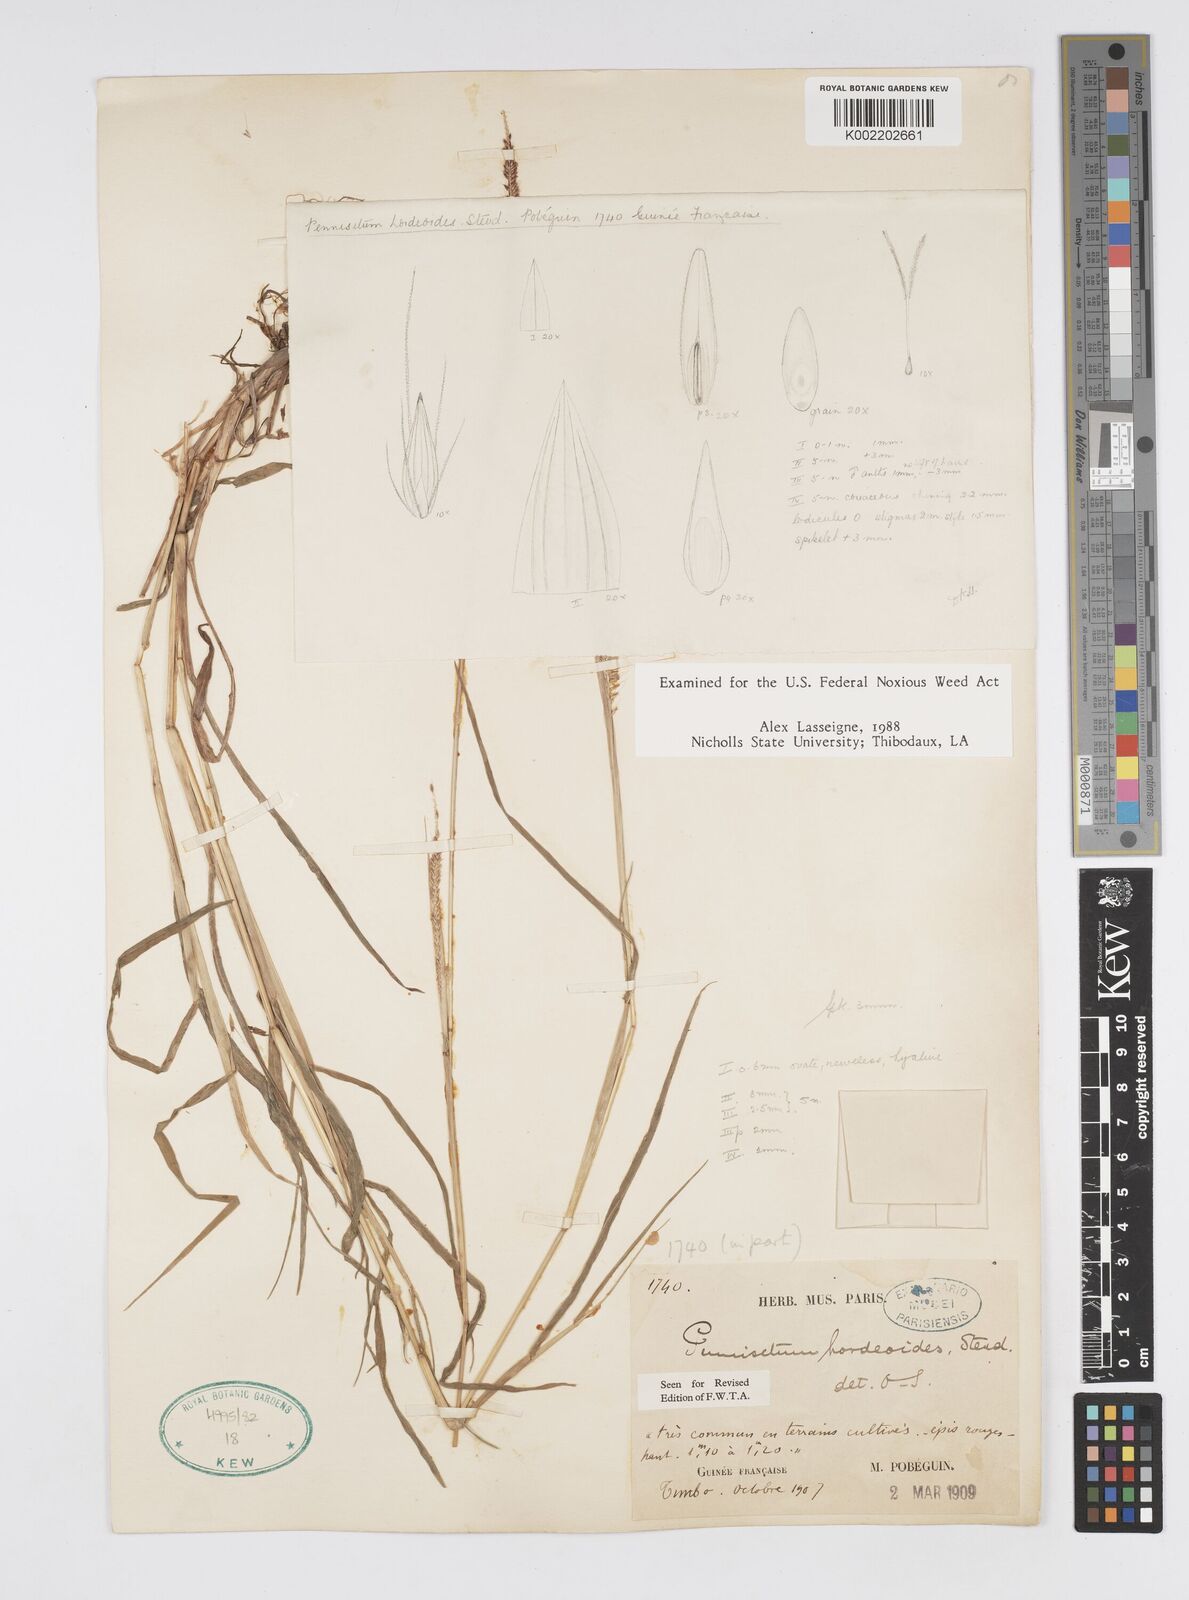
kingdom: Plantae
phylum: Tracheophyta
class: Liliopsida
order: Poales
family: Poaceae
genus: Cenchrus
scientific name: Cenchrus hordeoides
